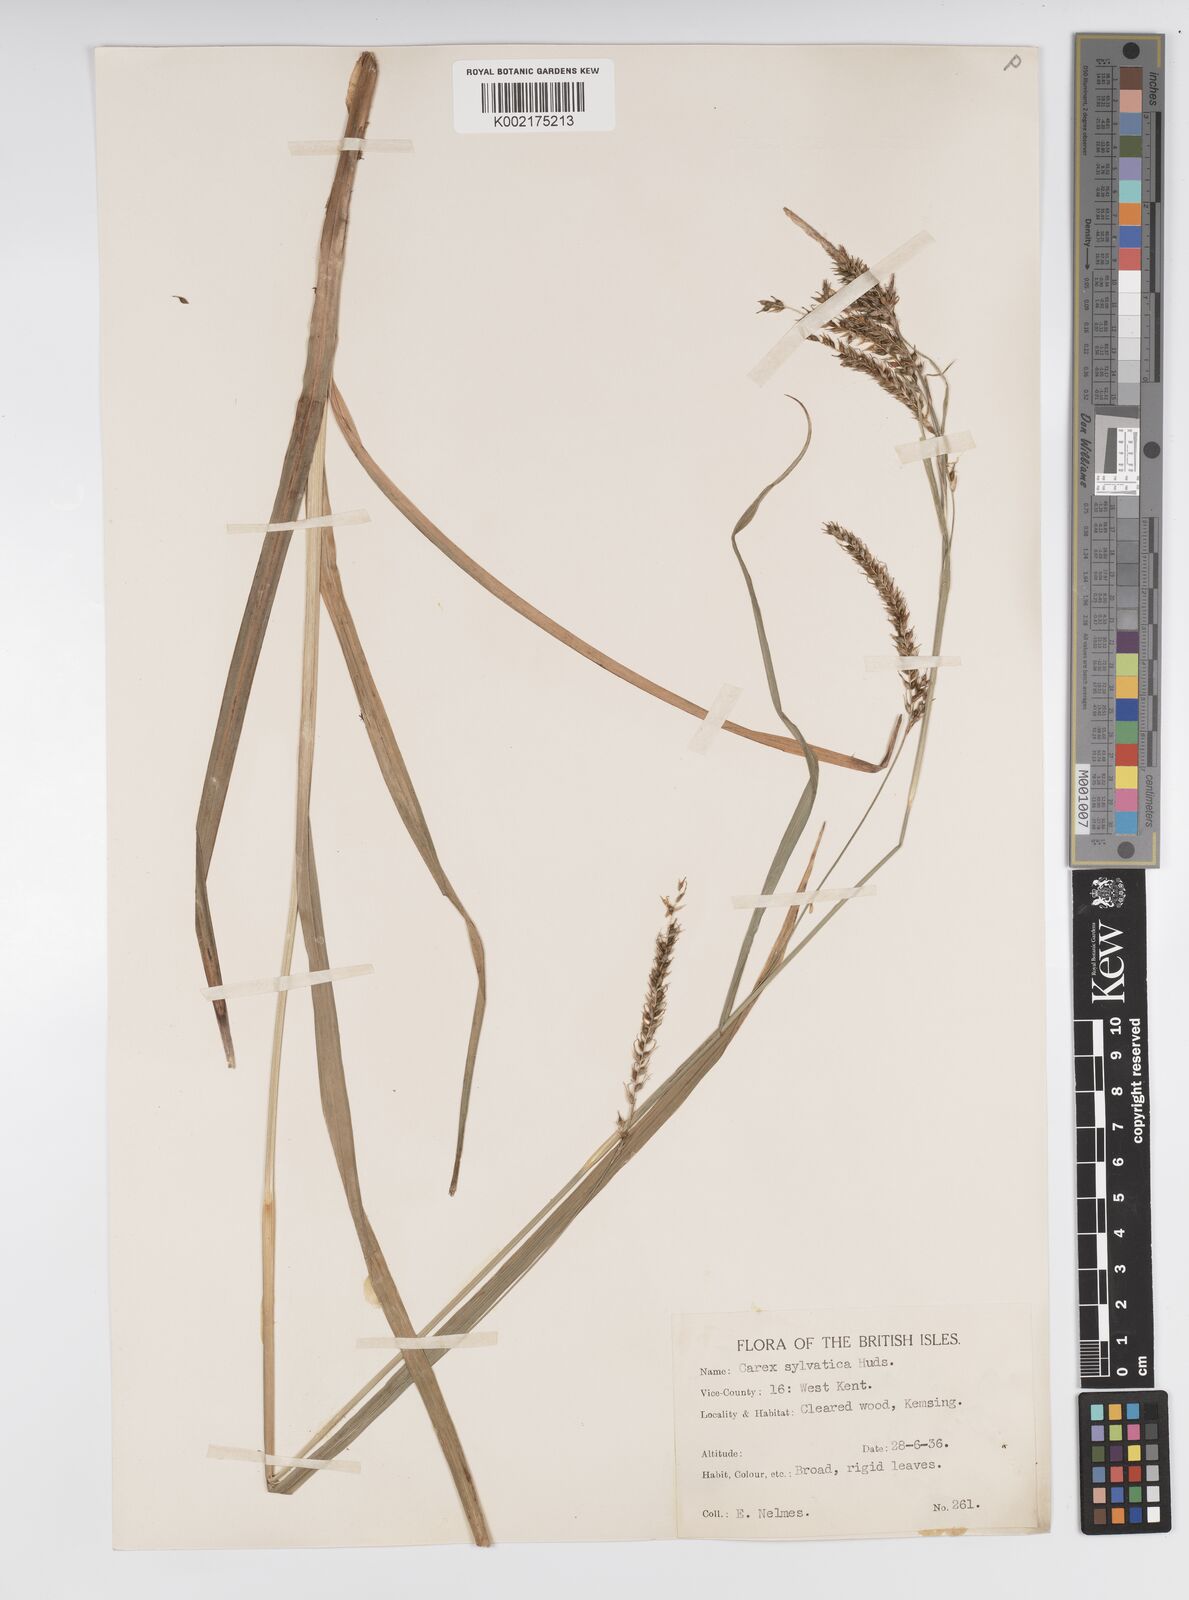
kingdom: Plantae
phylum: Tracheophyta
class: Liliopsida
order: Poales
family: Cyperaceae
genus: Carex
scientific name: Carex sylvatica
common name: Wood-sedge
